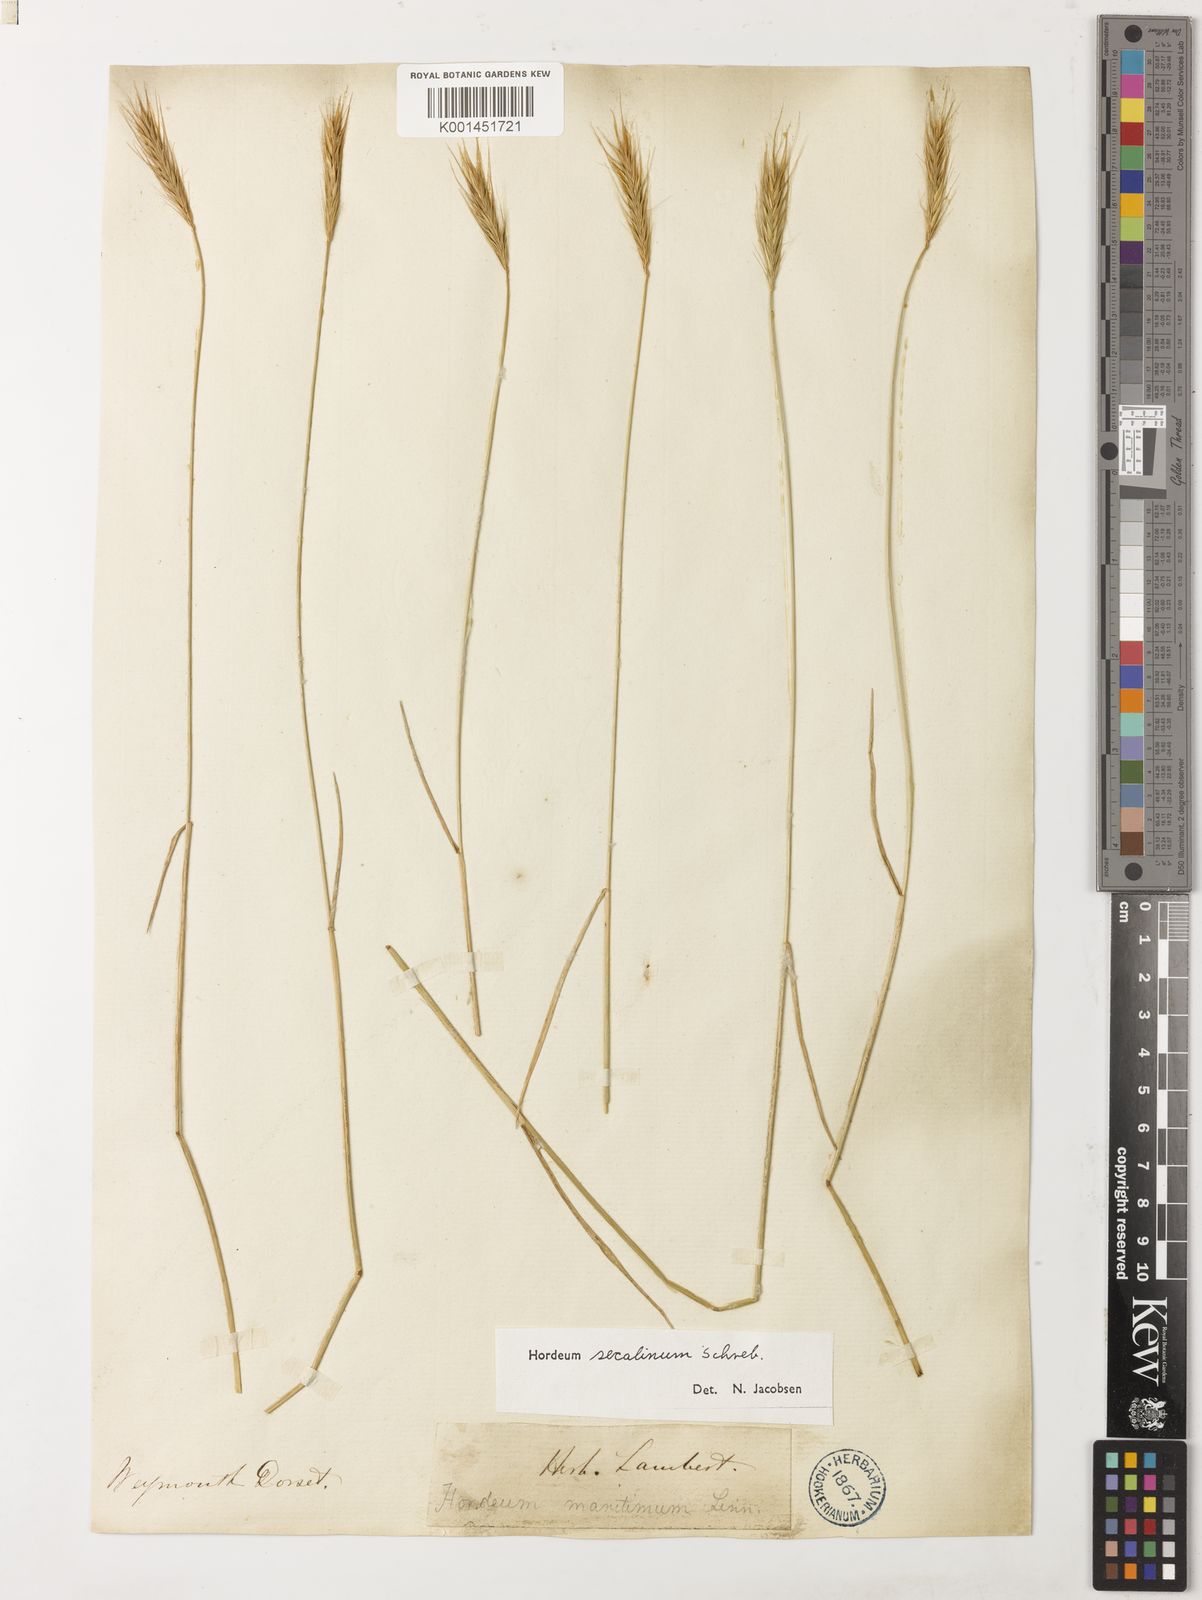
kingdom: Plantae
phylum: Tracheophyta
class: Liliopsida
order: Poales
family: Poaceae
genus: Hordeum
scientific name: Hordeum secalinum
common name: Meadow barley
